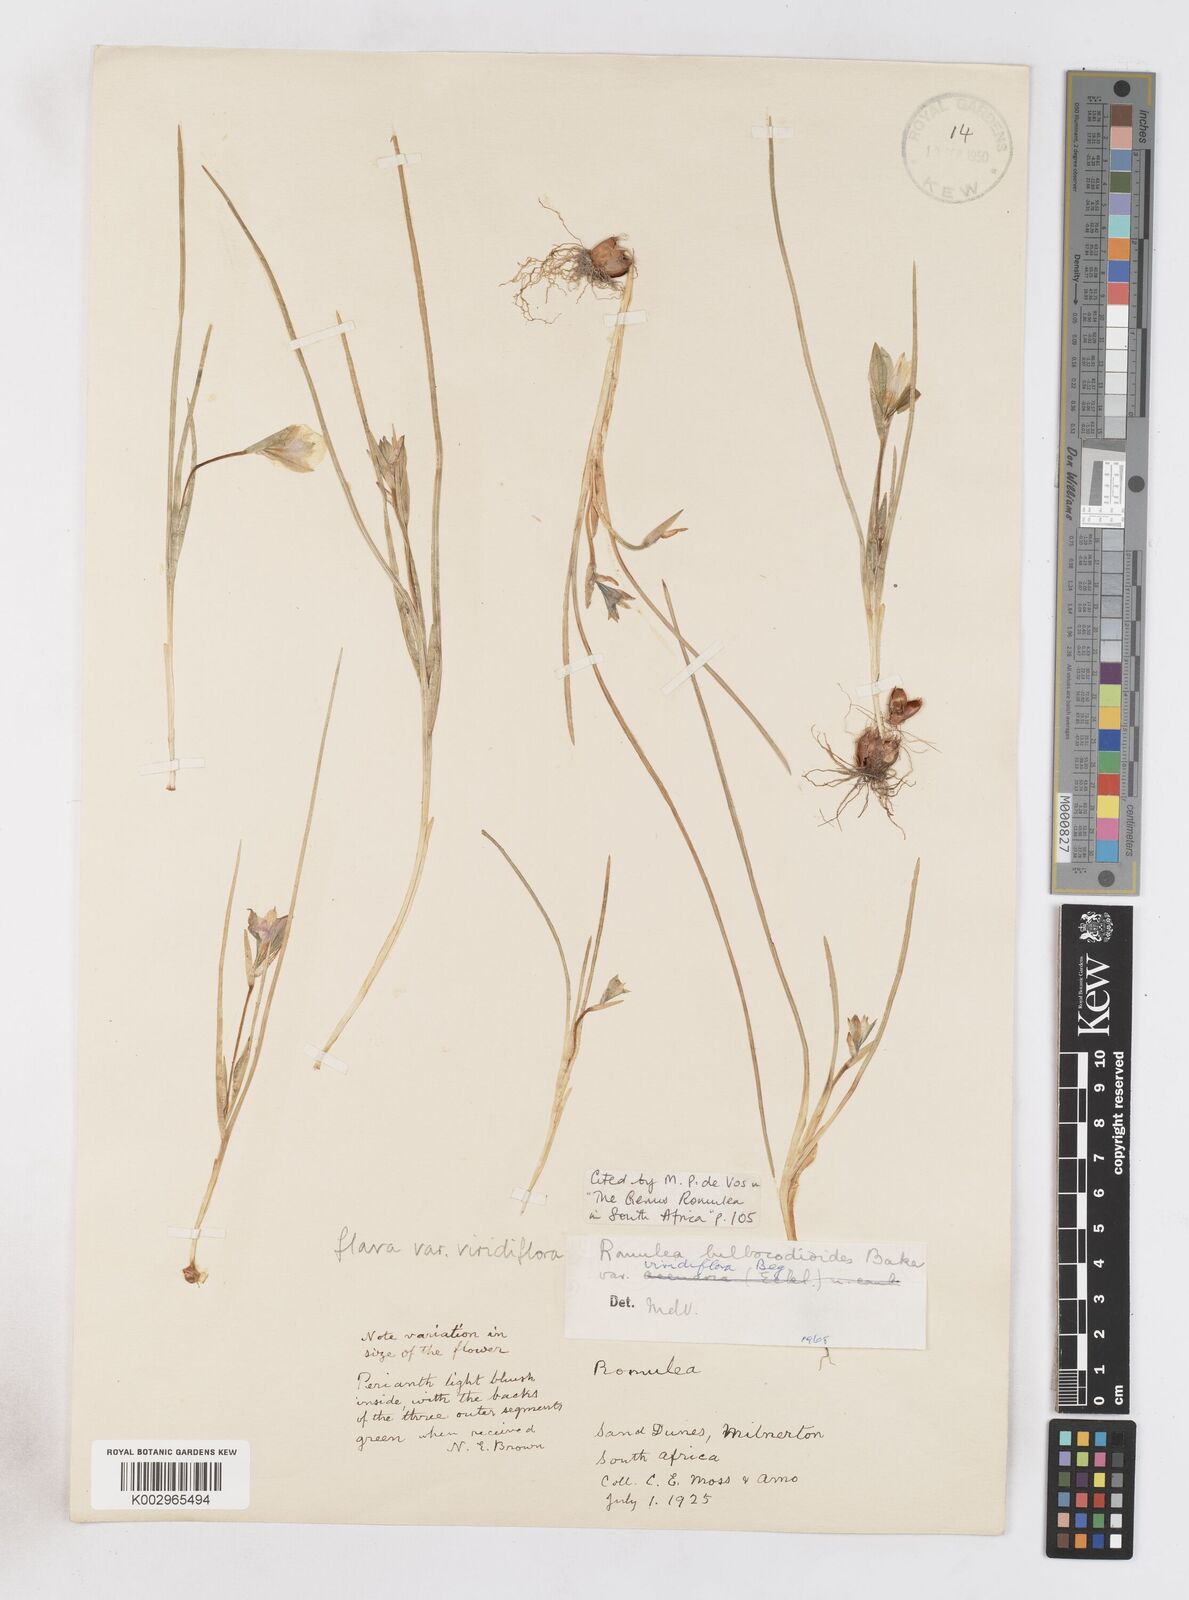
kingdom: Plantae
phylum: Tracheophyta
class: Liliopsida
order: Asparagales
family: Iridaceae
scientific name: Iridaceae
